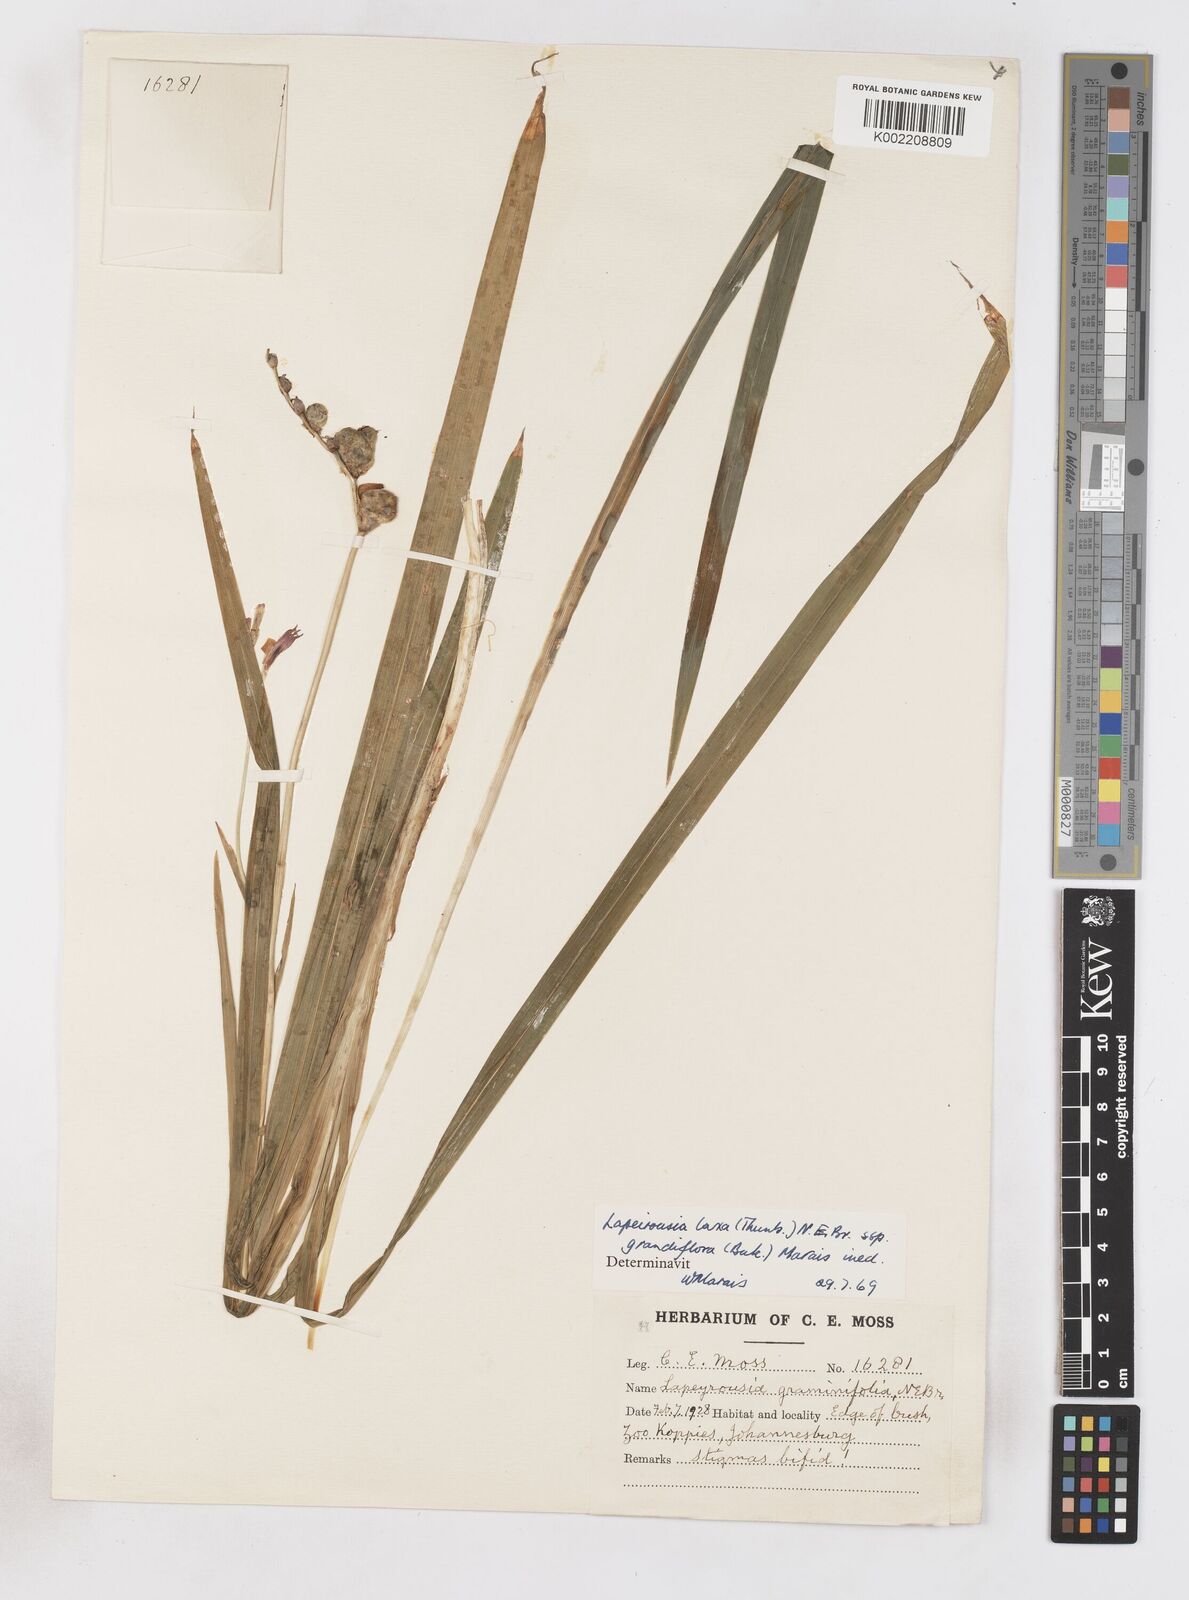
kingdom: Plantae
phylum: Tracheophyta
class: Liliopsida
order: Asparagales
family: Iridaceae
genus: Freesia
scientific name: Freesia grandiflora
